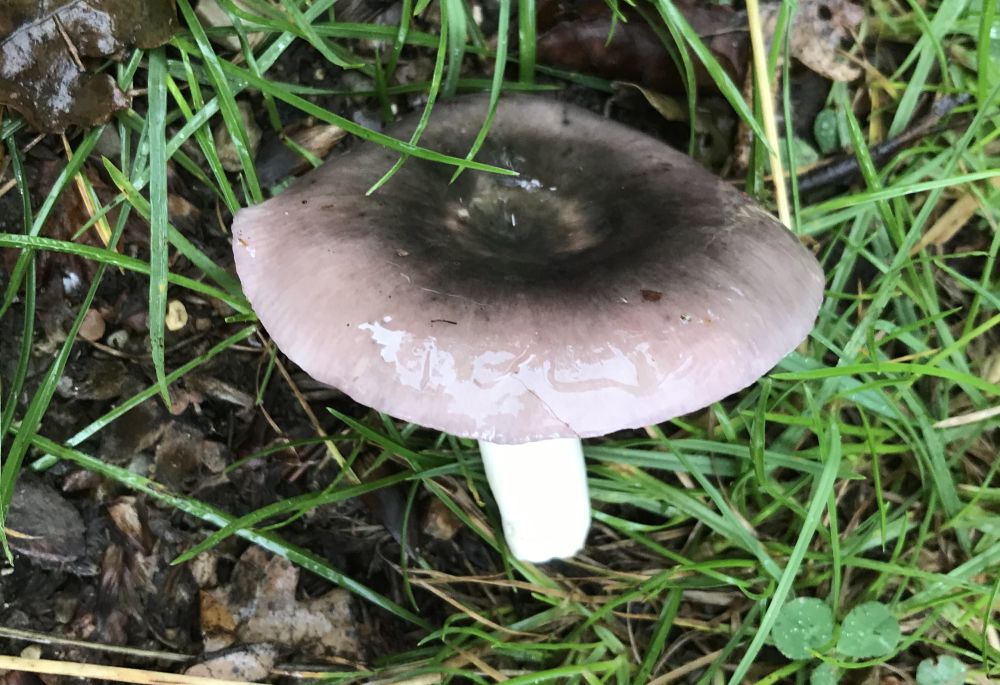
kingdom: Fungi
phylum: Basidiomycota
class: Agaricomycetes
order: Russulales
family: Russulaceae
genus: Russula
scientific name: Russula cyanoxantha
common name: broget skørhat
